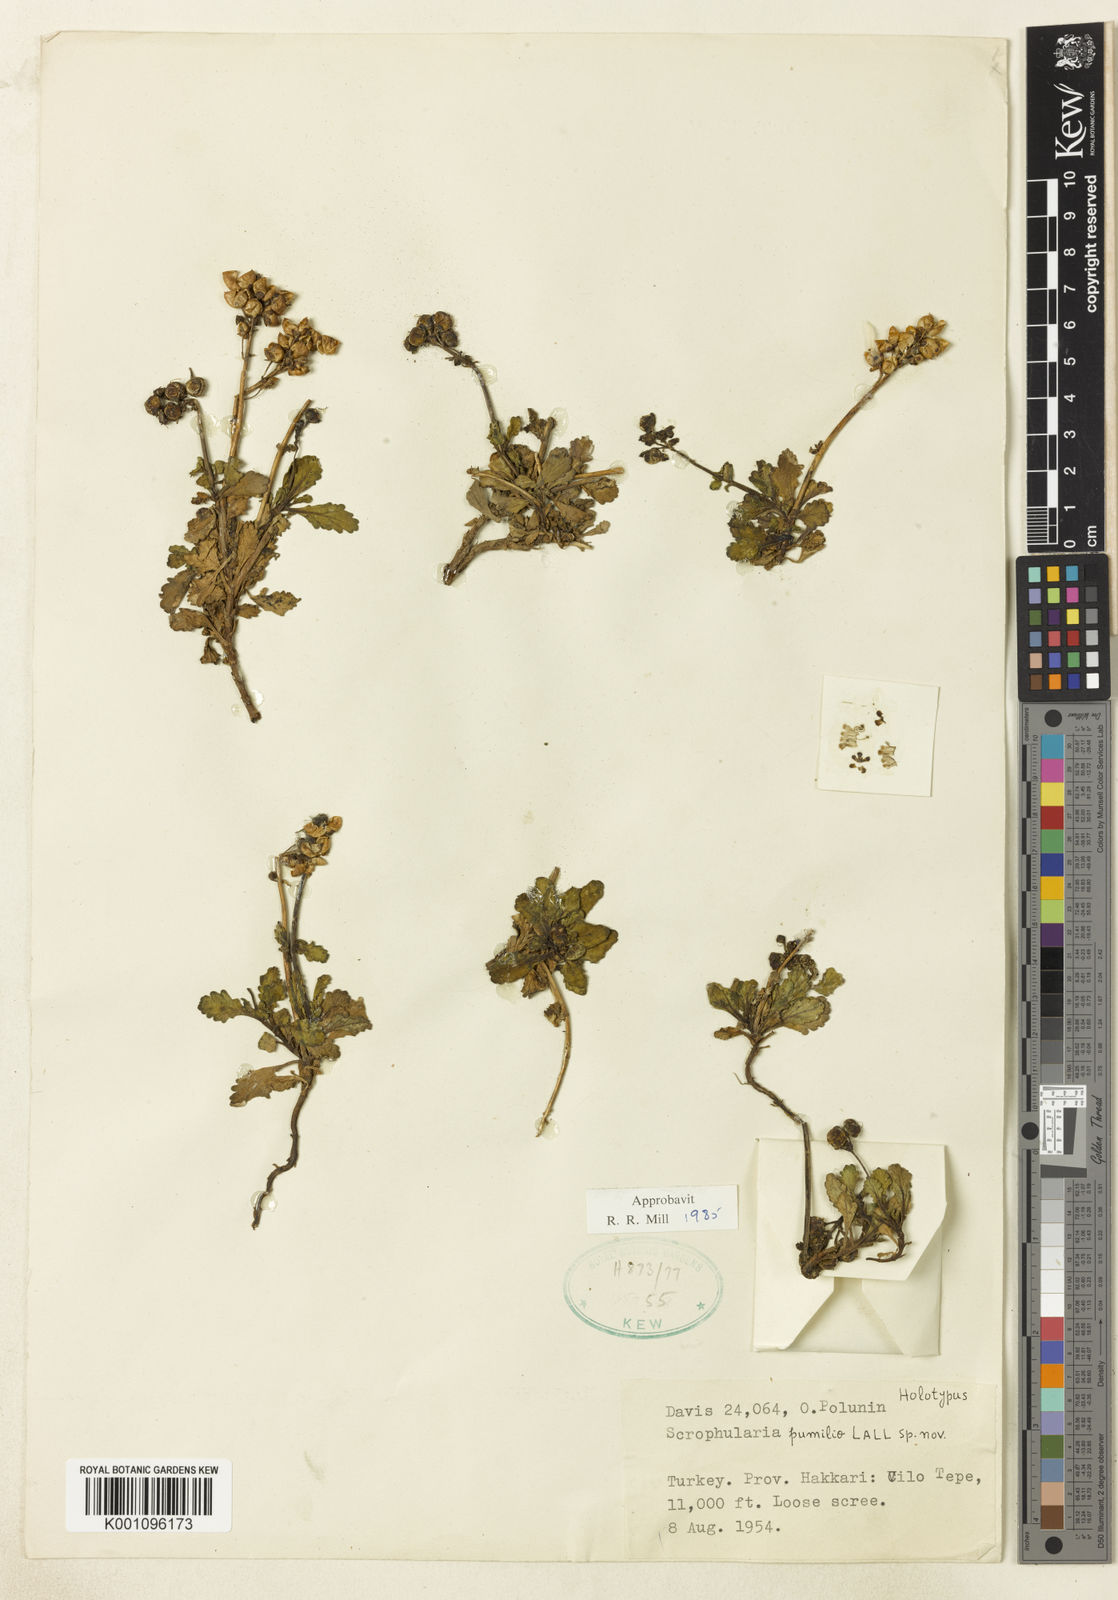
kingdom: Plantae
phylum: Tracheophyta
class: Magnoliopsida
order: Lamiales
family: Scrophulariaceae
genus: Scrophularia
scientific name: Scrophularia pumilio
